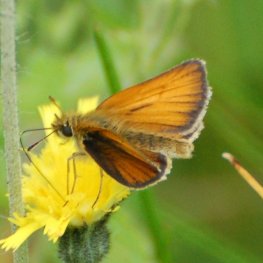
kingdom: Animalia
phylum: Arthropoda
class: Insecta
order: Lepidoptera
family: Hesperiidae
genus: Thymelicus
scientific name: Thymelicus lineola
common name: European Skipper
